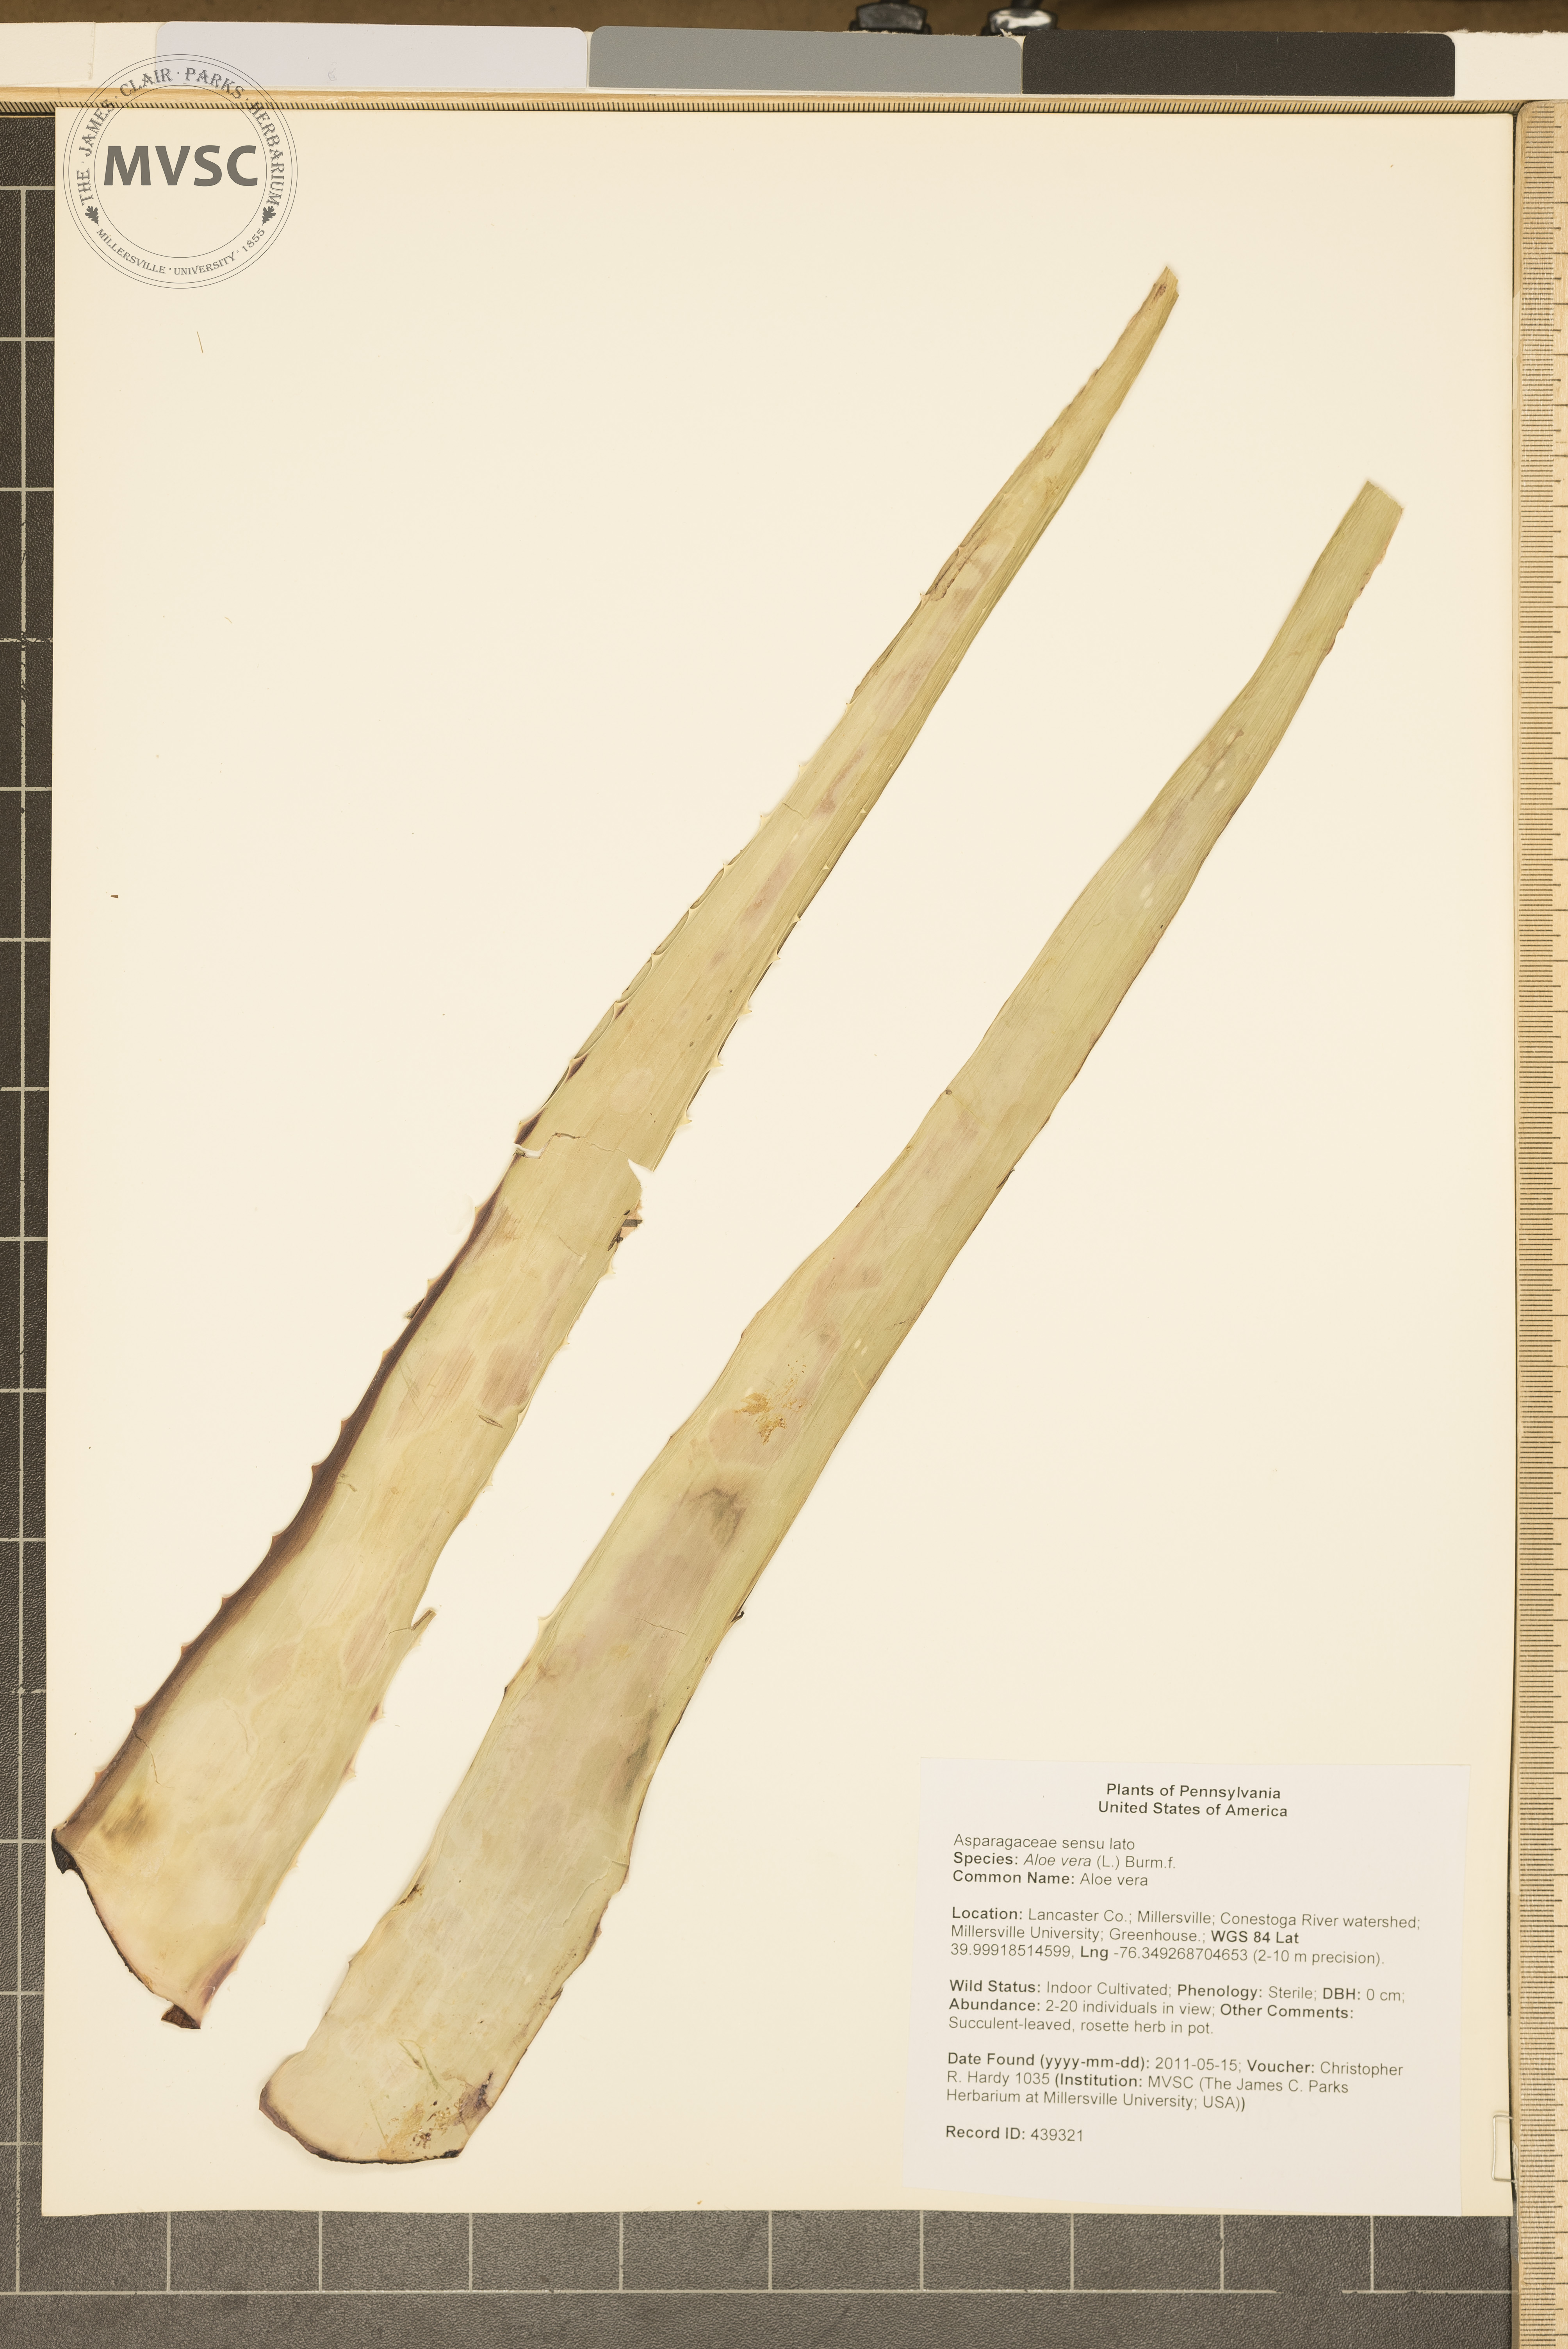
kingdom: Plantae
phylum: Tracheophyta
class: Liliopsida
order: Asparagales
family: Asphodelaceae
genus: Aloe
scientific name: Aloe vera
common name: Aloe vera
